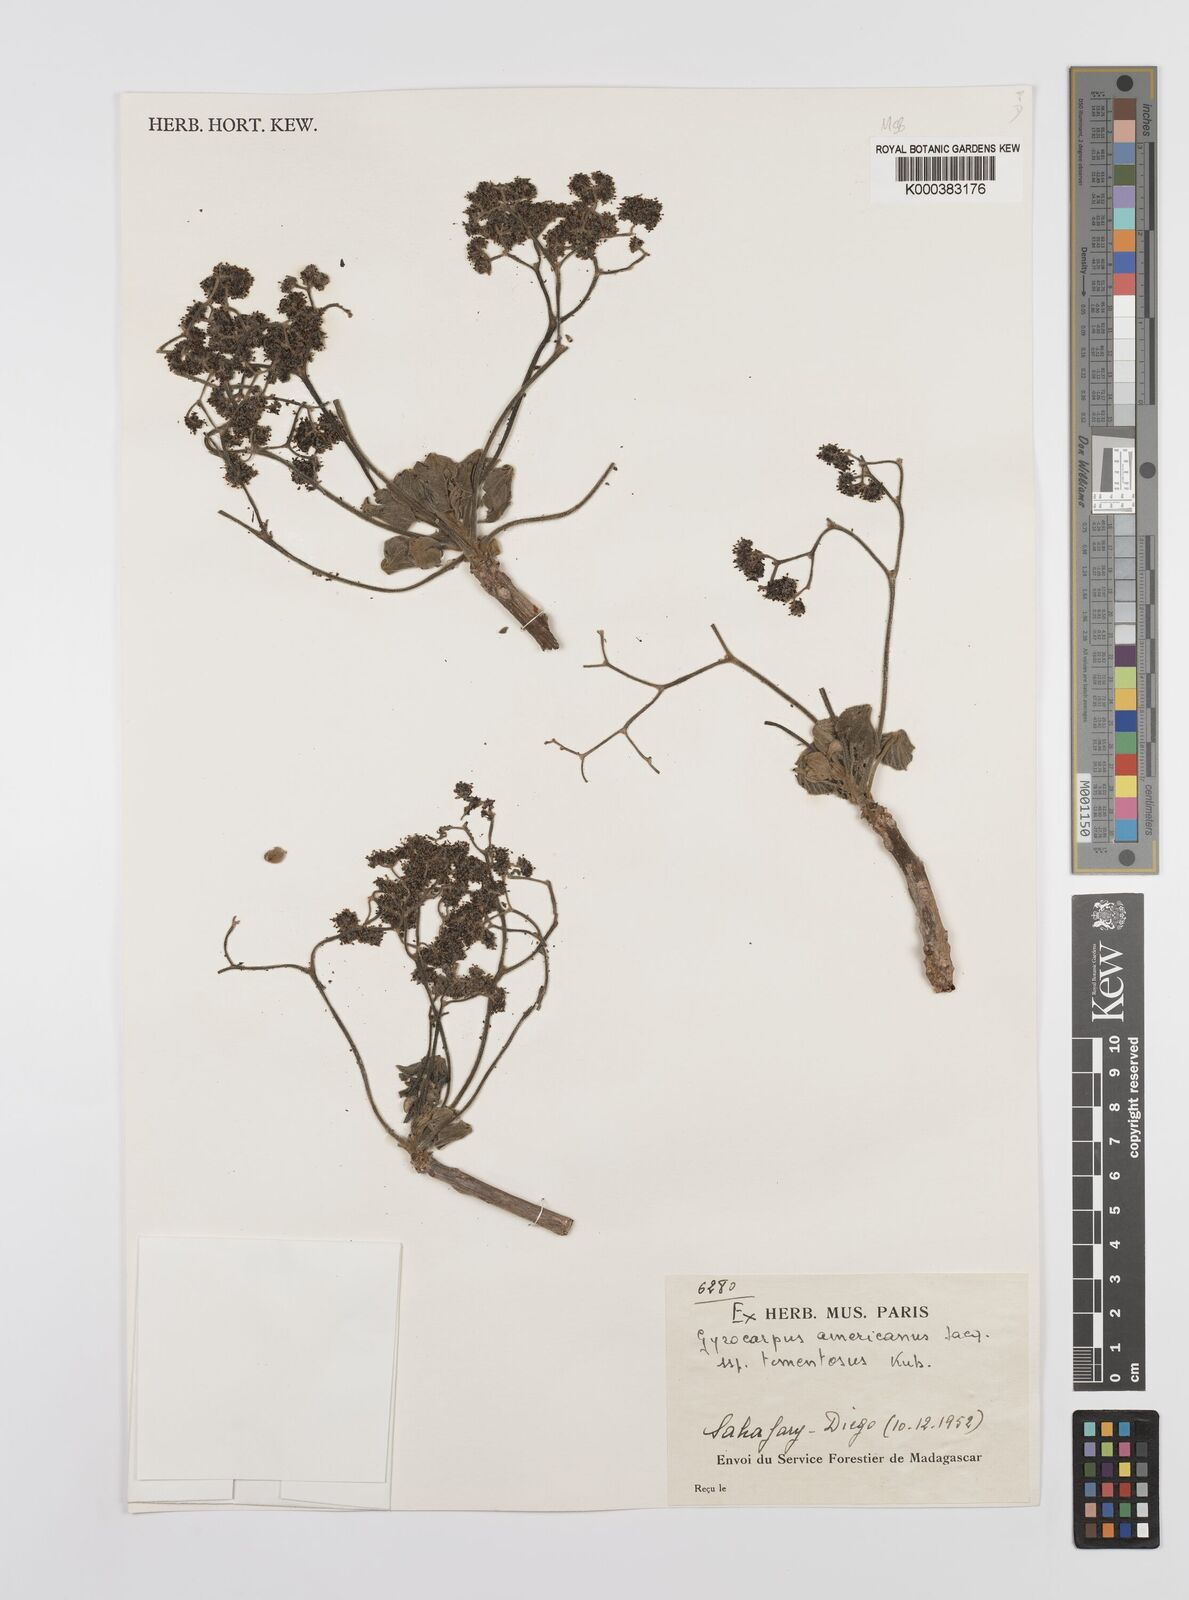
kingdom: Plantae
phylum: Tracheophyta
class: Magnoliopsida
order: Laurales
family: Hernandiaceae
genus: Gyrocarpus
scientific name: Gyrocarpus americanus
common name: Gyro damson
